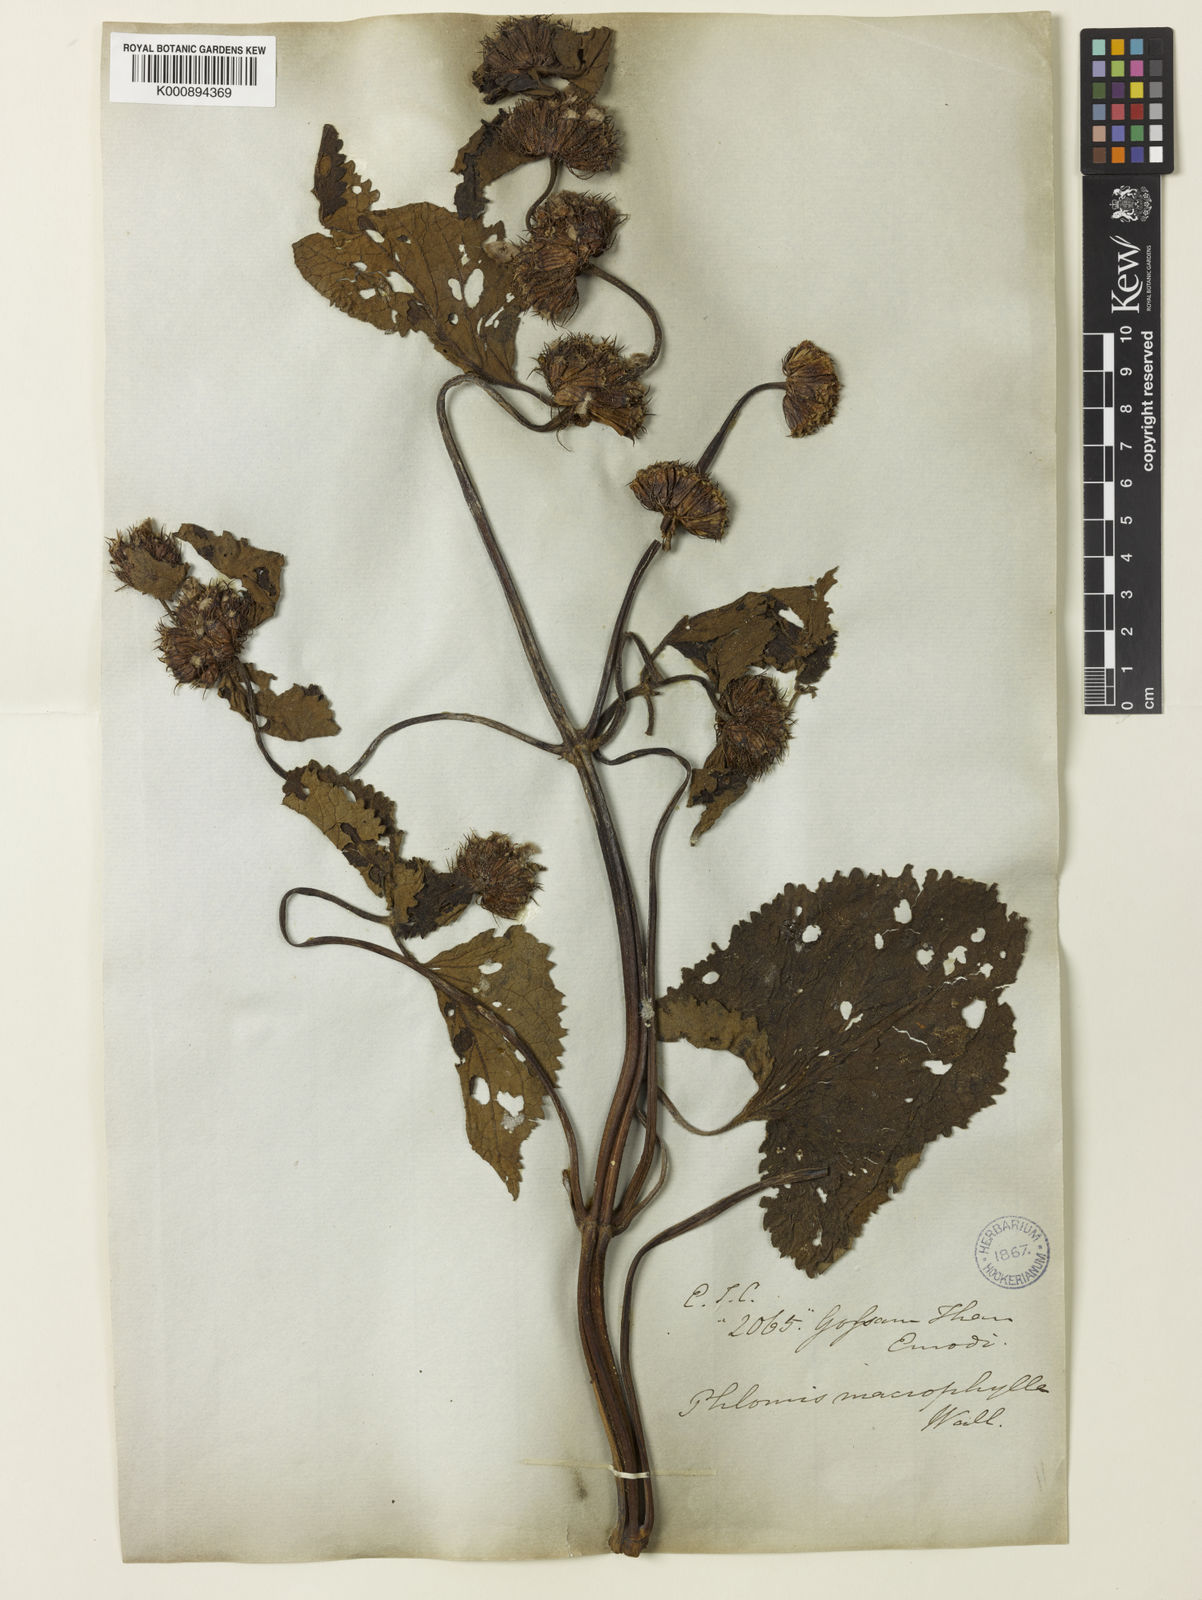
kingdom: Plantae
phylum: Tracheophyta
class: Magnoliopsida
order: Lamiales
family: Lamiaceae
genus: Phlomis
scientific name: Phlomis
